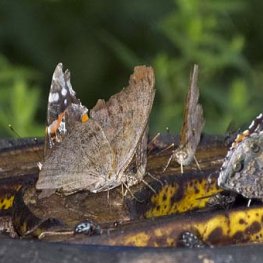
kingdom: Animalia
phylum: Arthropoda
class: Insecta
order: Lepidoptera
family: Nymphalidae
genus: Vanessa
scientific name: Vanessa atalanta
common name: Red Admiral
